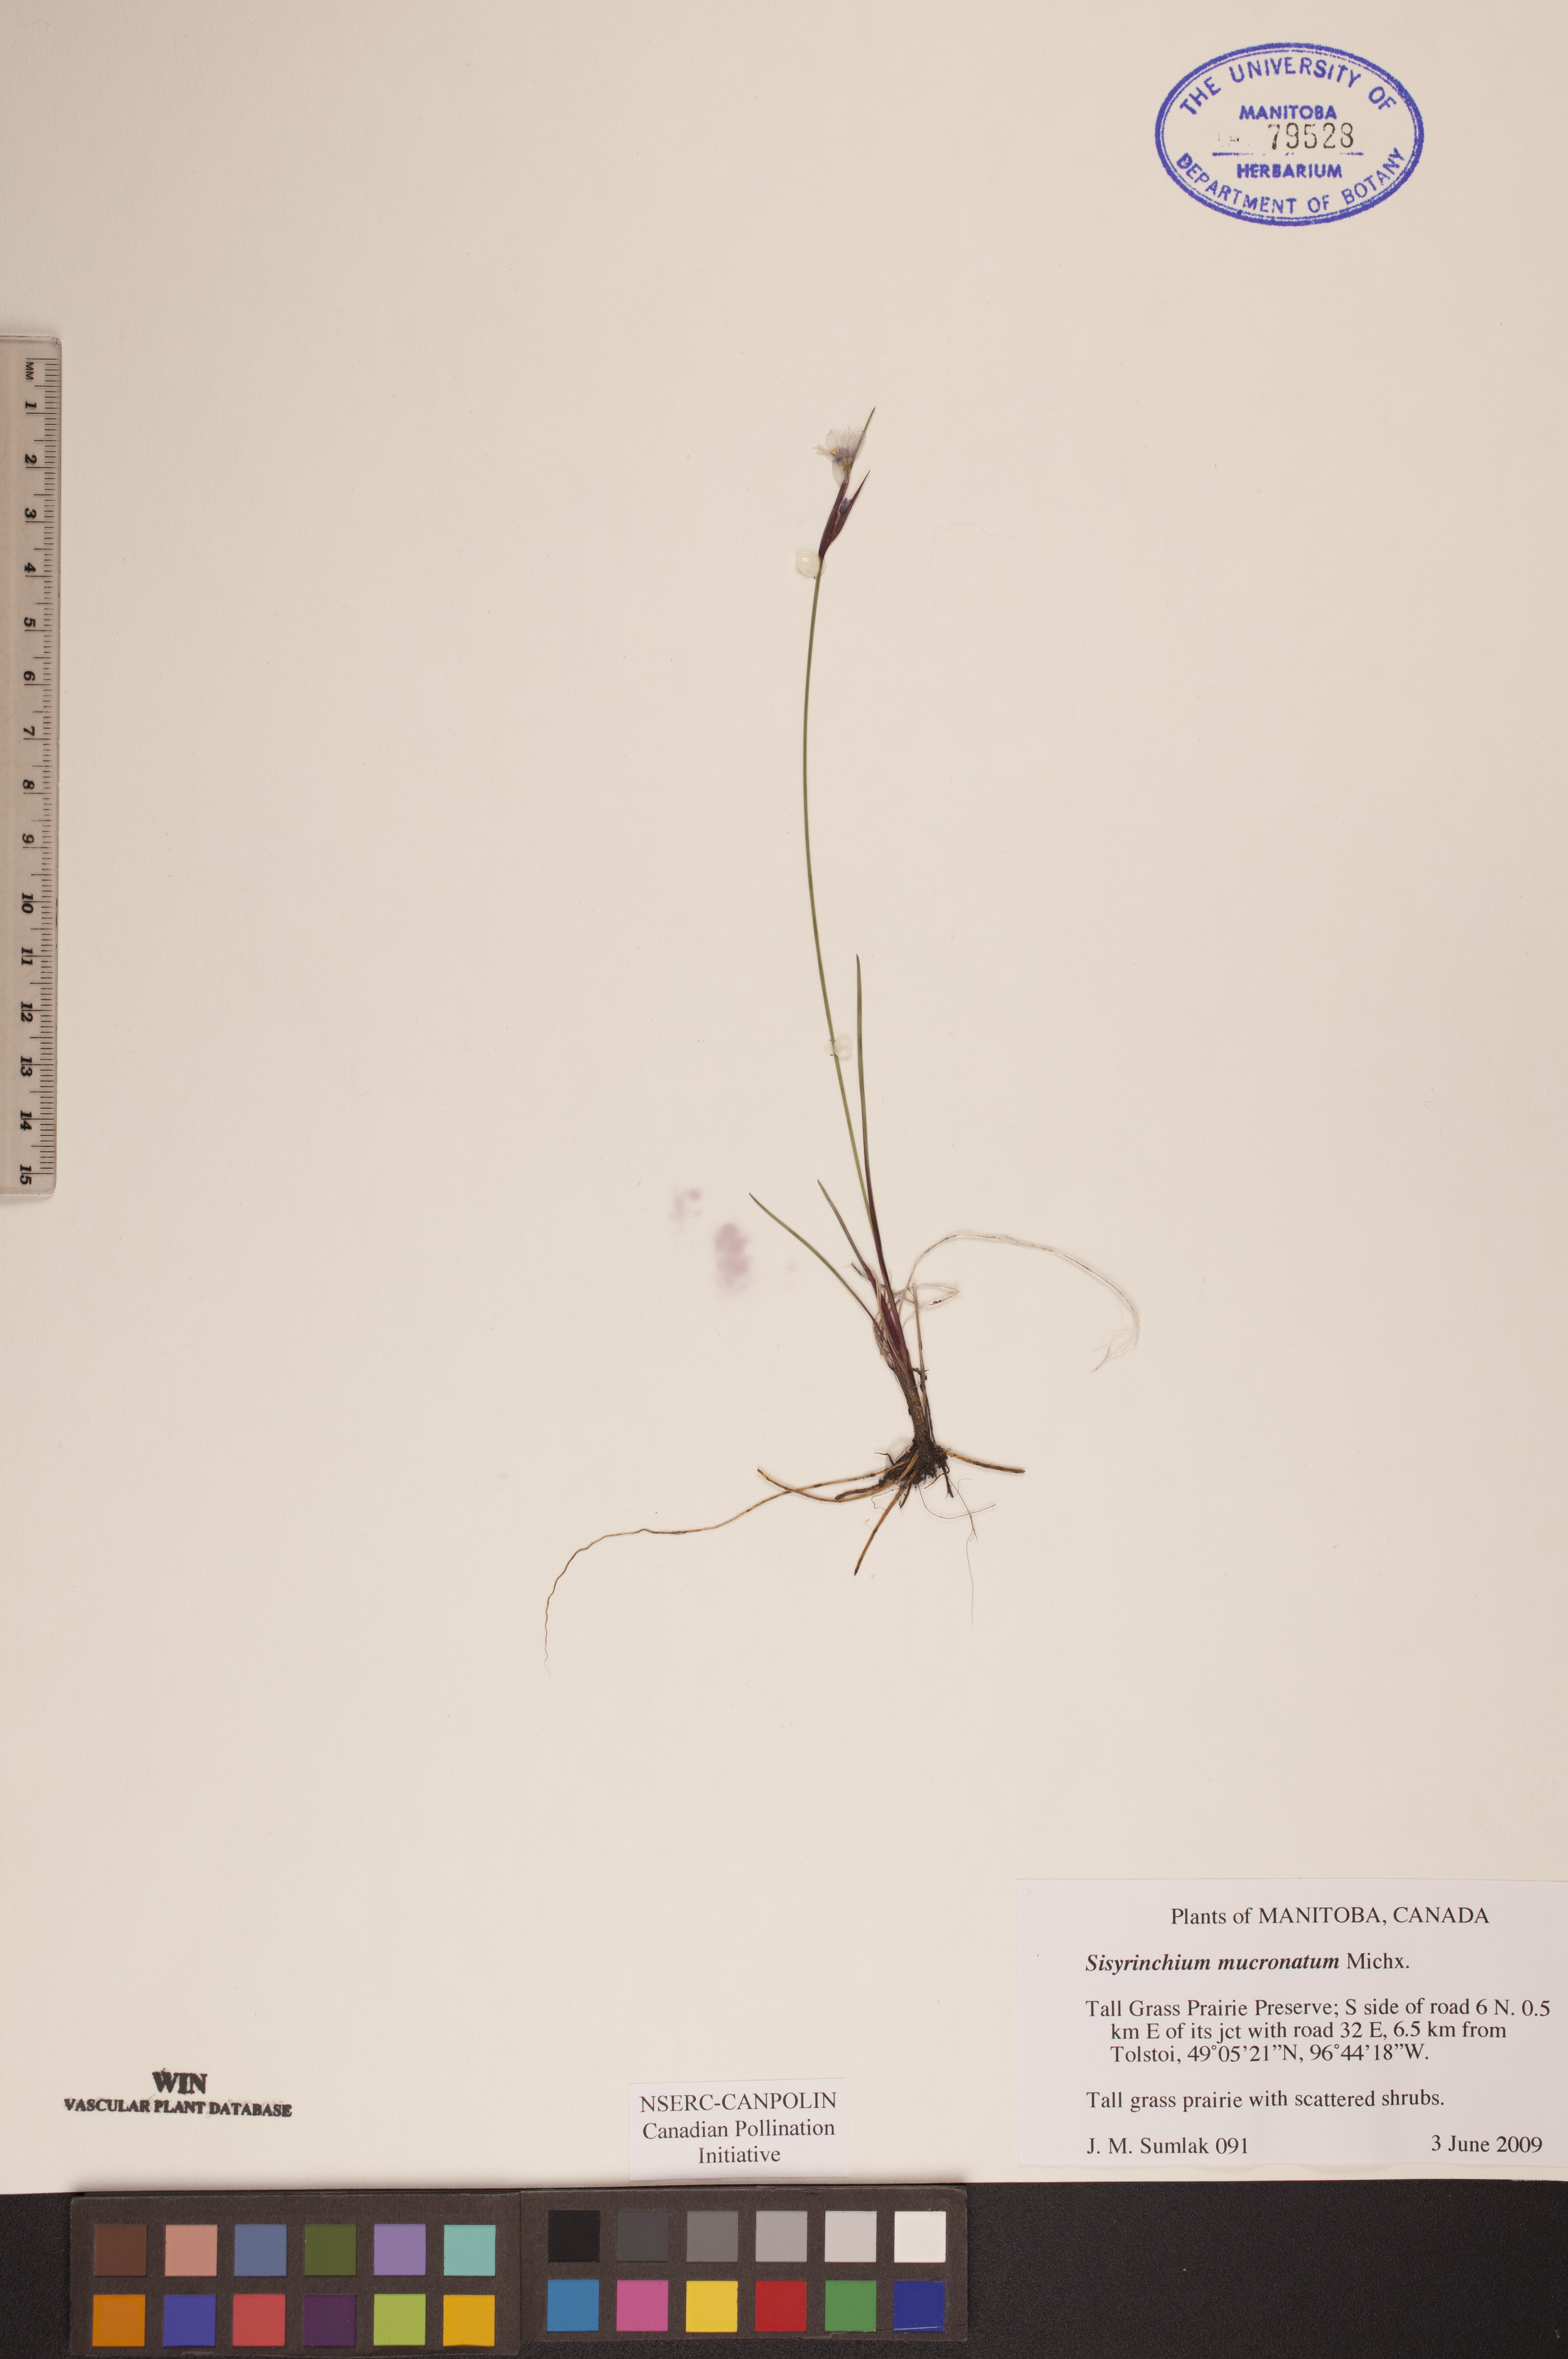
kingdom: Plantae
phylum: Tracheophyta
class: Liliopsida
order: Asparagales
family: Iridaceae
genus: Sisyrinchium
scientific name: Sisyrinchium mucronatum
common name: Eastern blue-eyed-grass
